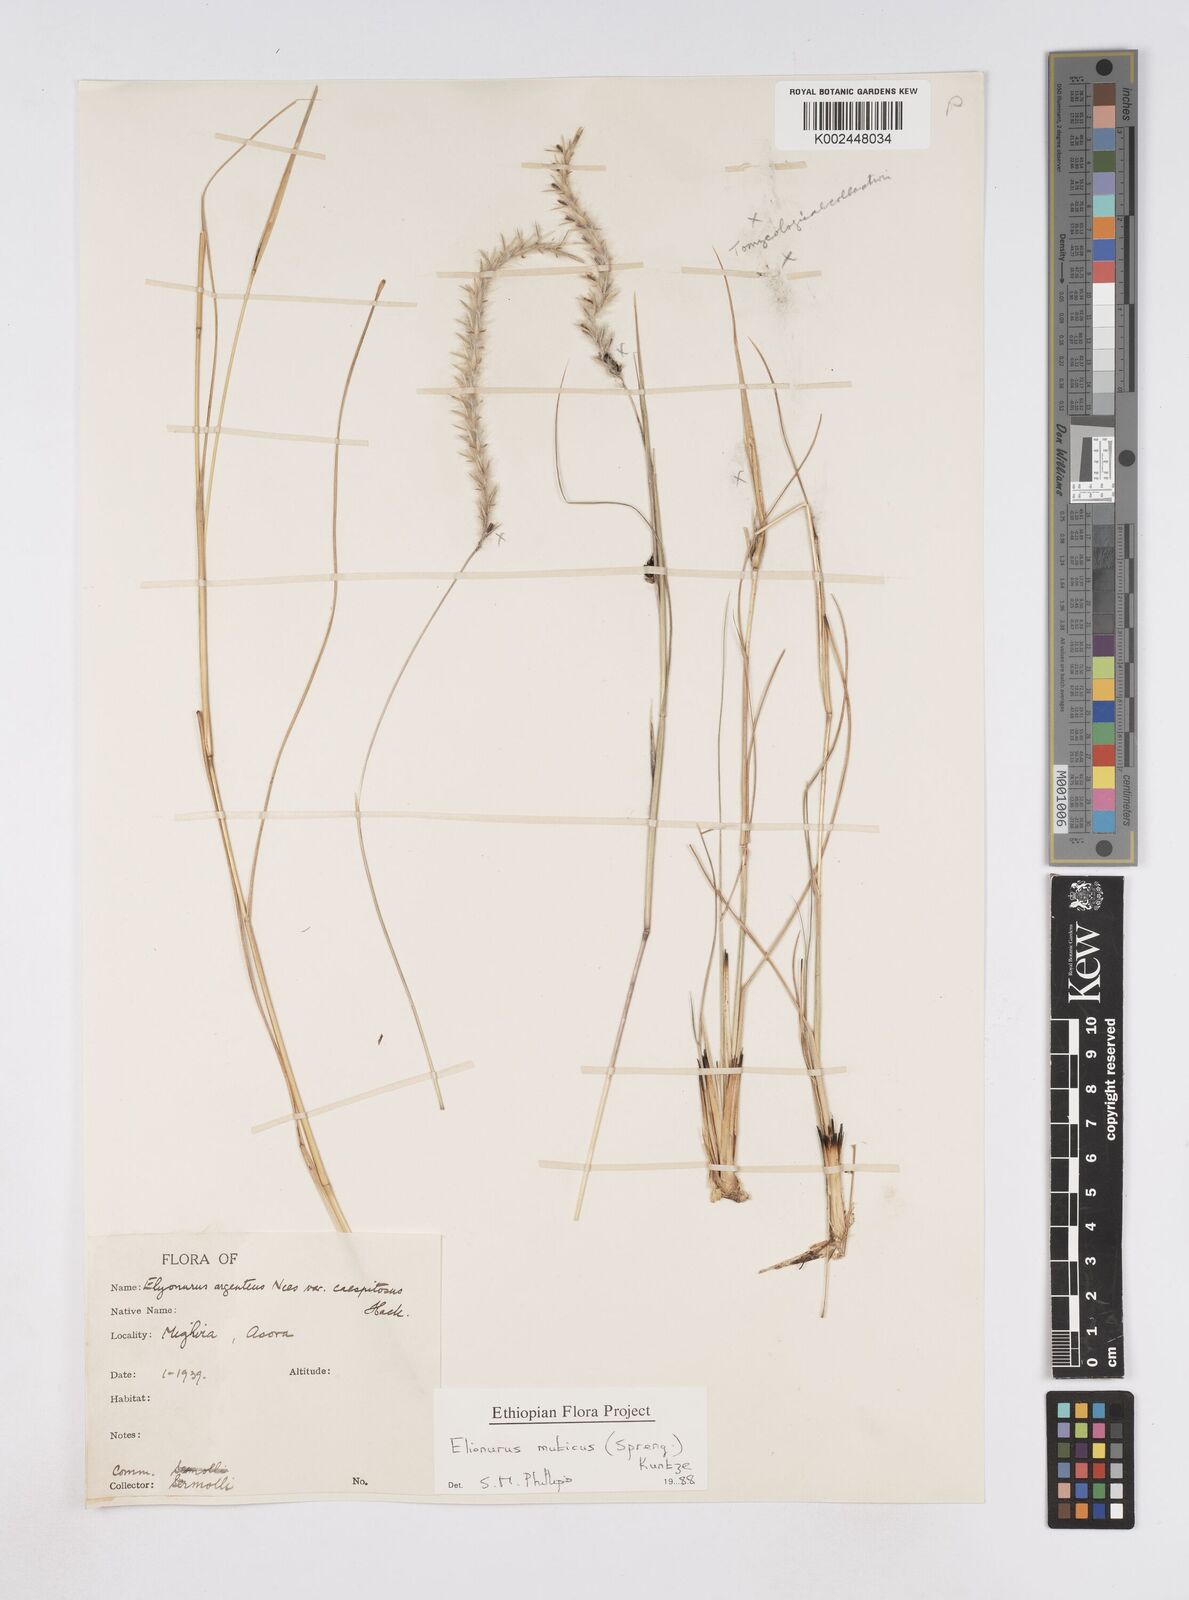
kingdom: Plantae
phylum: Tracheophyta
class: Liliopsida
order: Poales
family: Poaceae
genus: Elionurus
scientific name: Elionurus muticus
